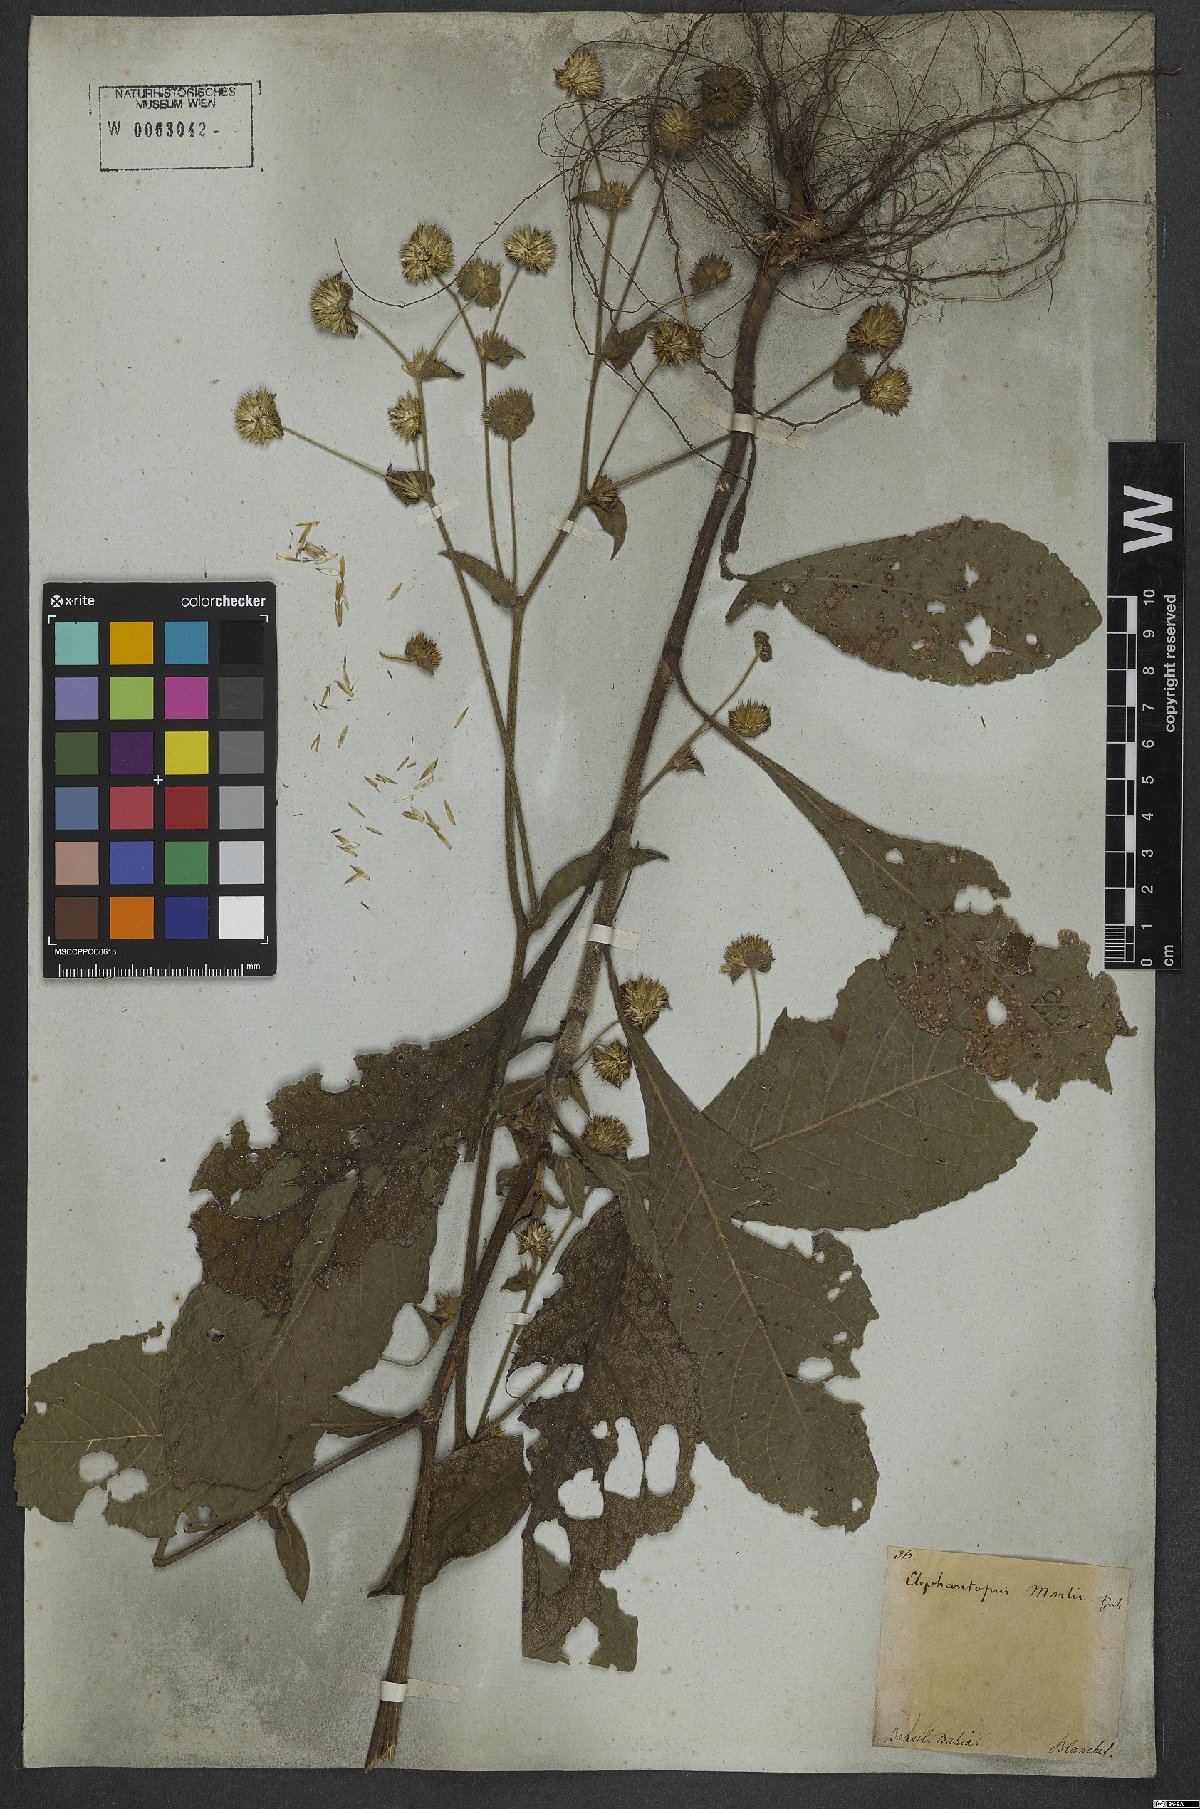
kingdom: Plantae
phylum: Tracheophyta
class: Magnoliopsida
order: Asterales
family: Asteraceae
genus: Elephantopus
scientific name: Elephantopus mollis
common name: Soft elephantsfoot
